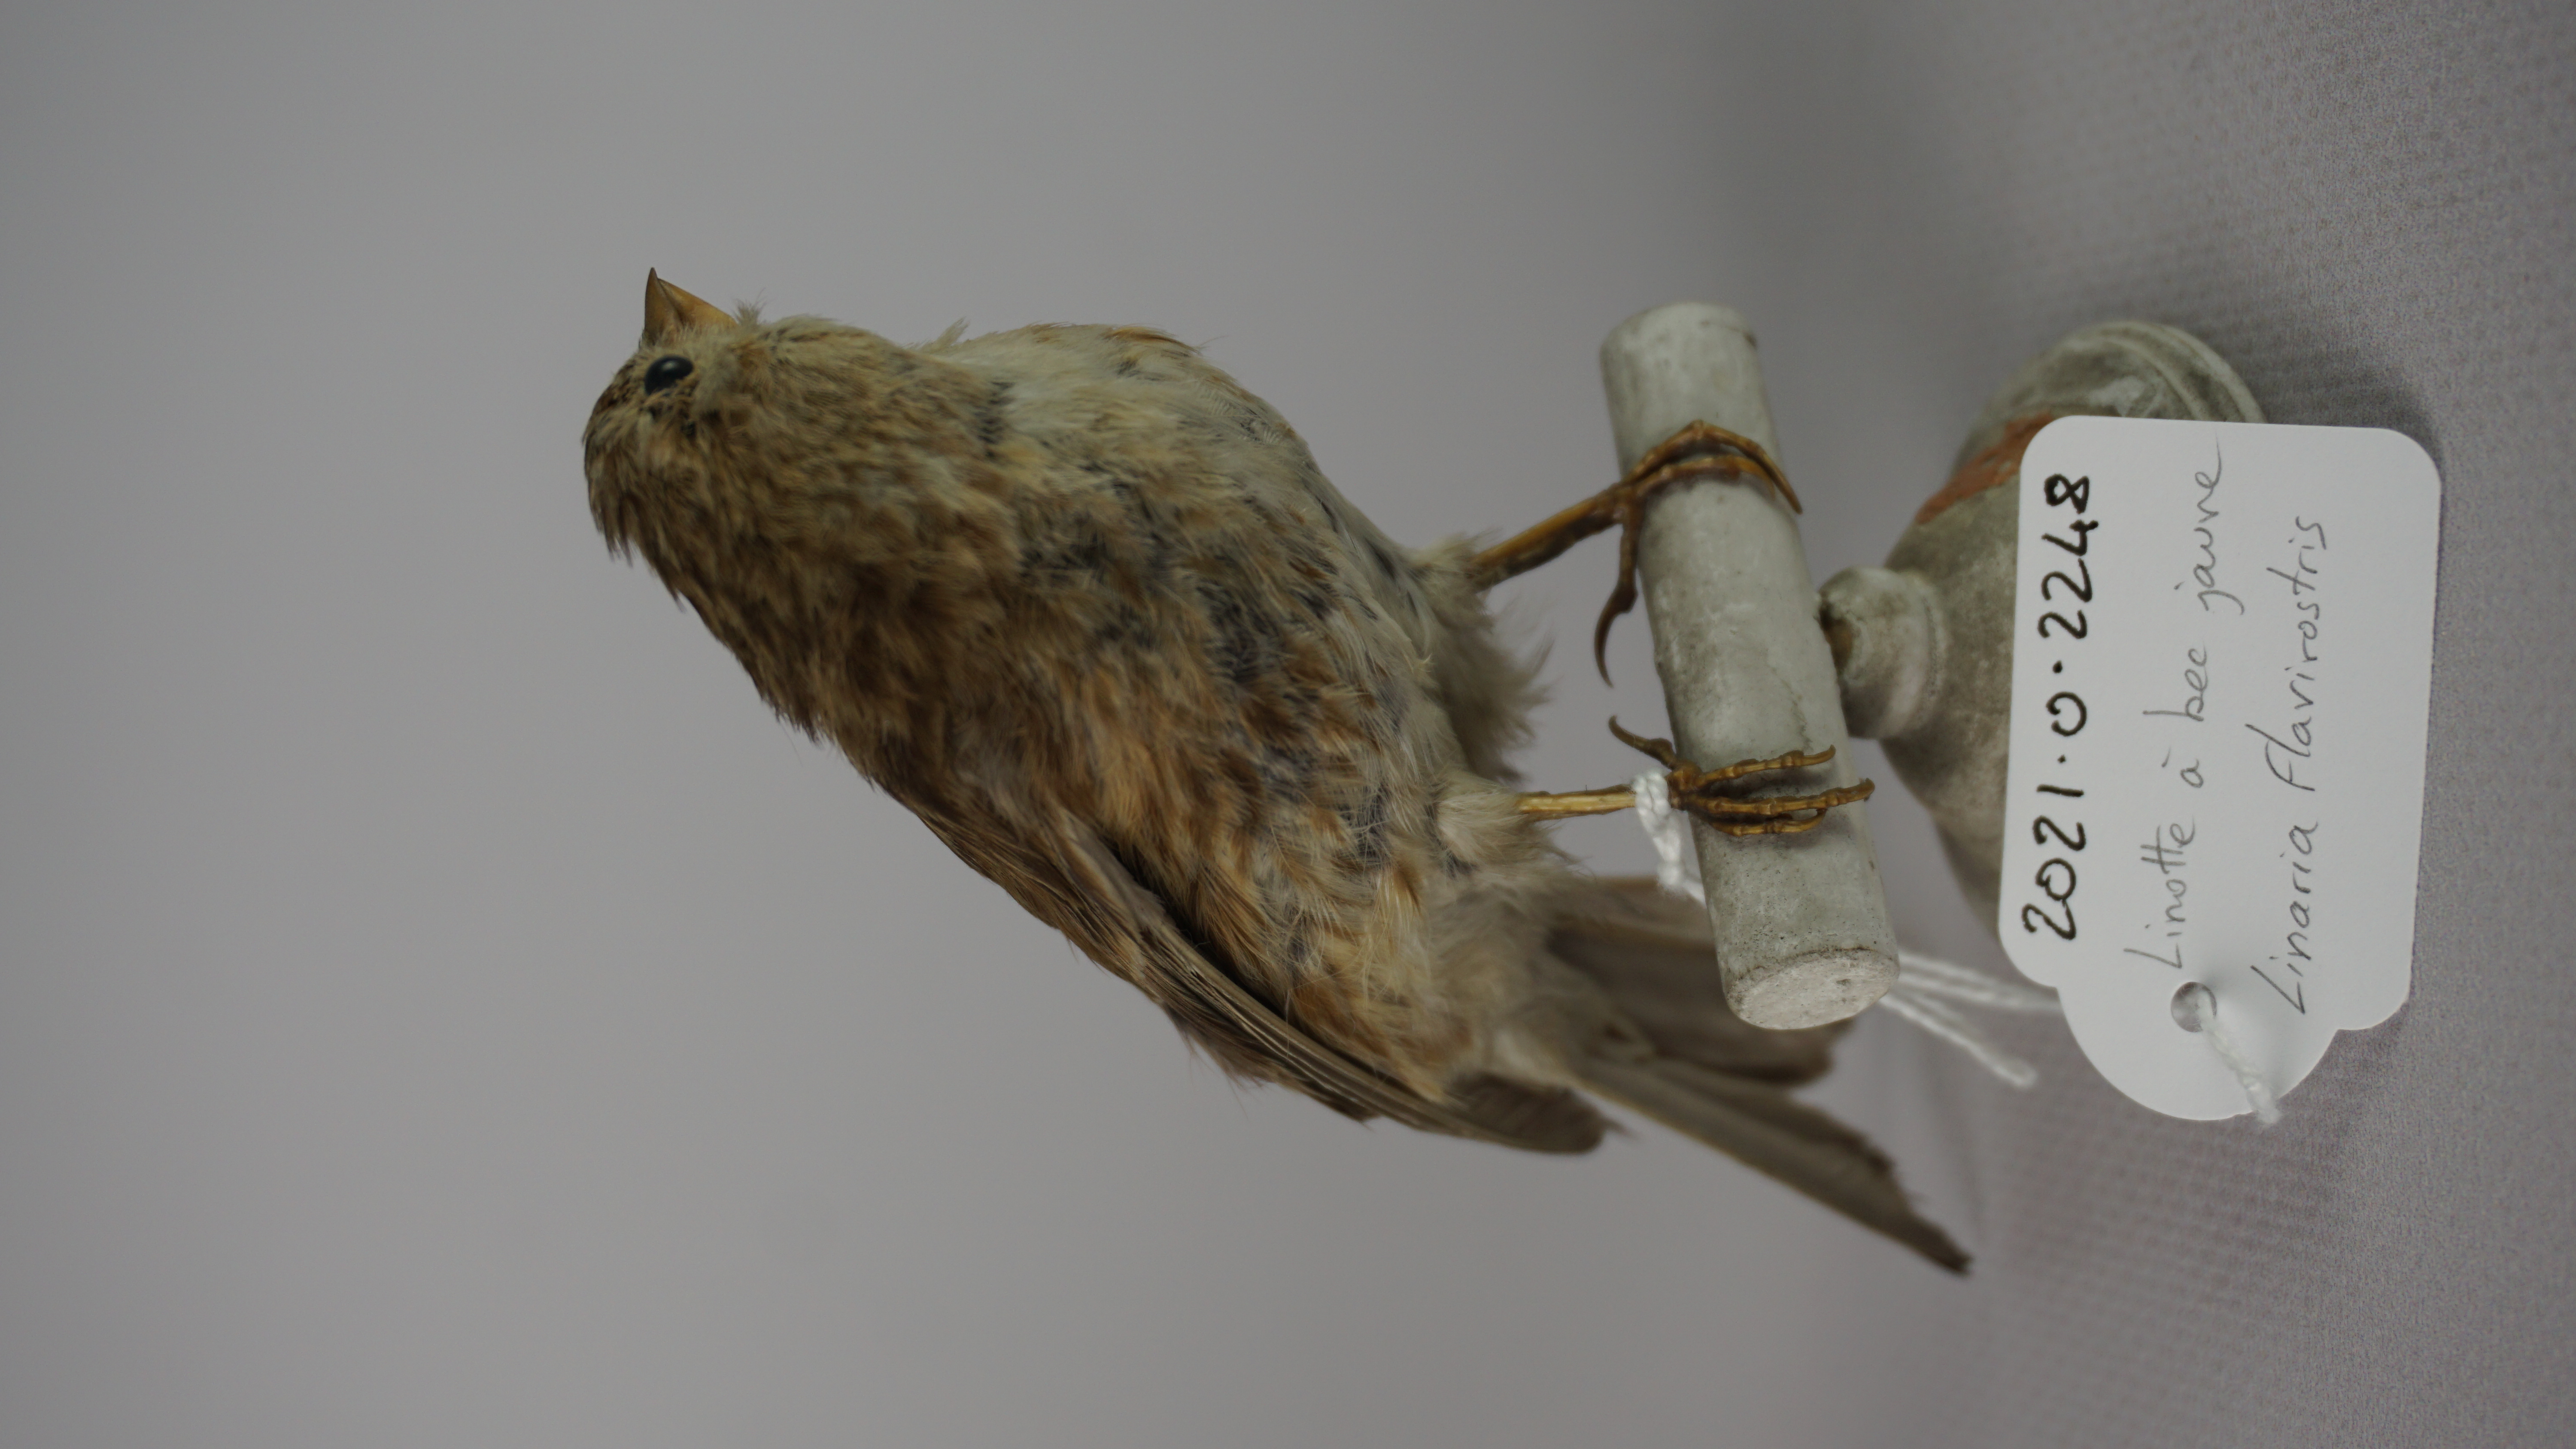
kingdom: Animalia
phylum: Chordata
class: Aves
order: Passeriformes
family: Fringillidae
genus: Linaria
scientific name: Linaria flavirostris
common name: Twite
